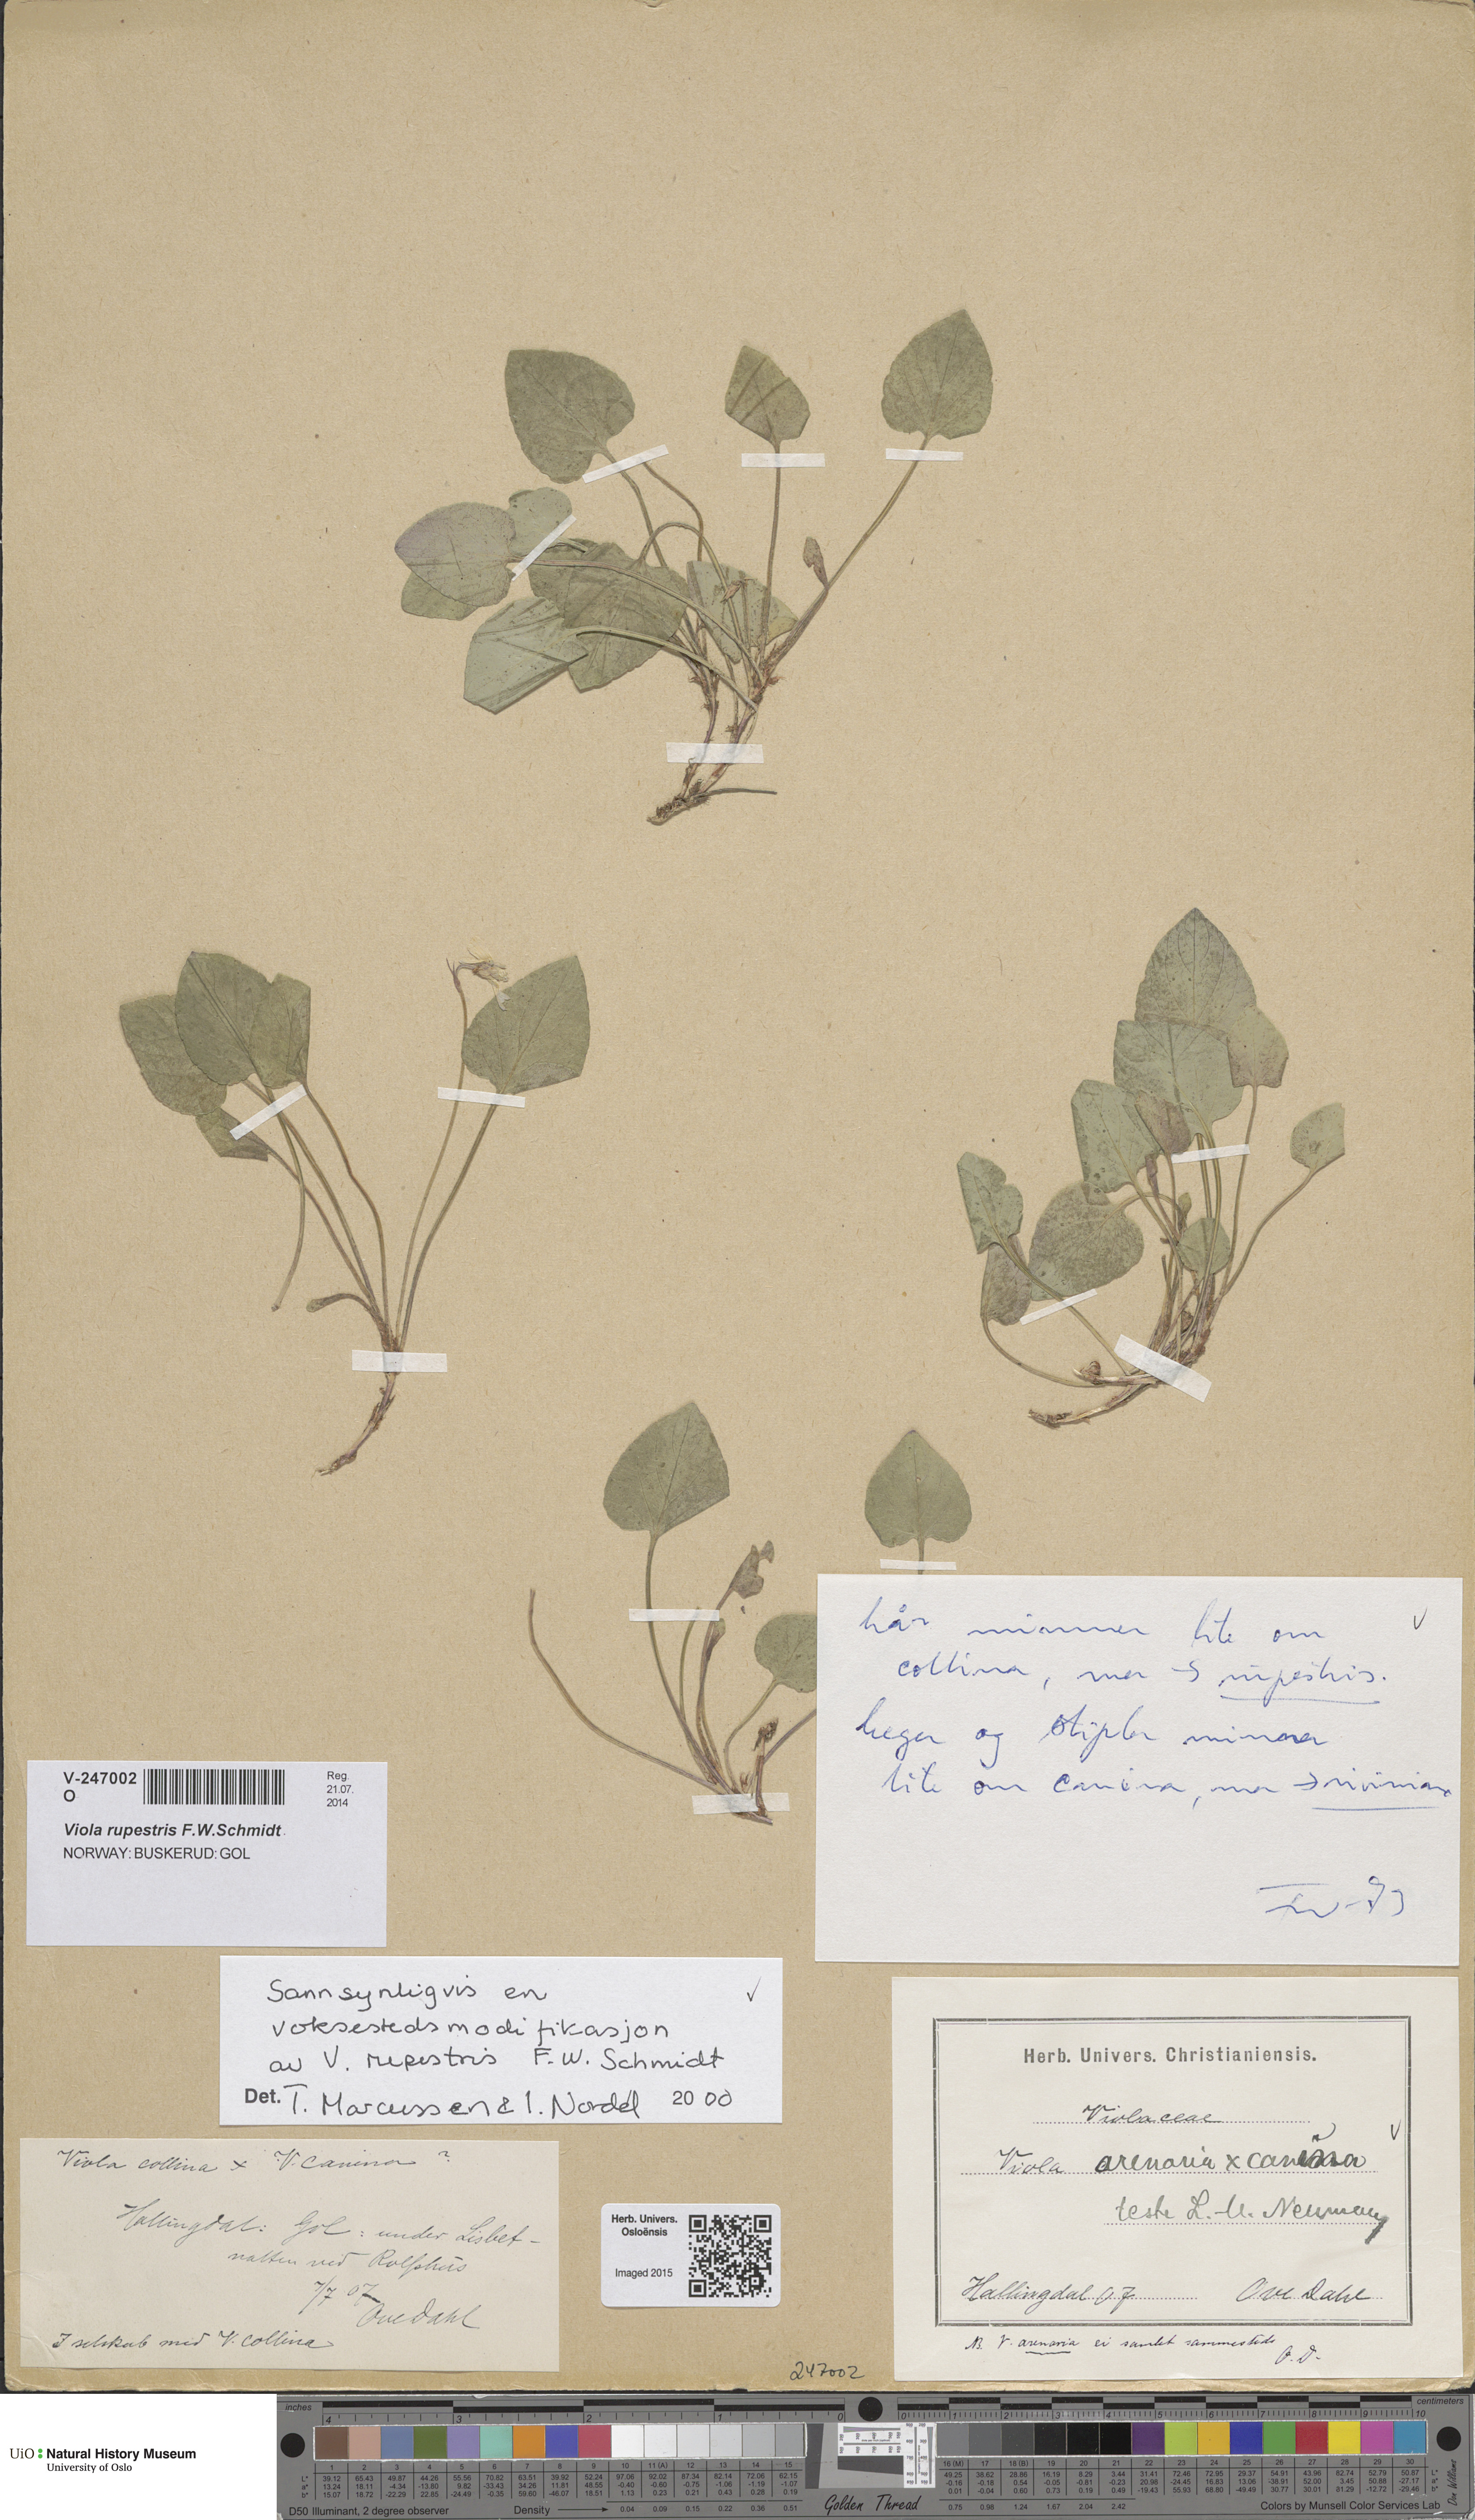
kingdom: Plantae
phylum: Tracheophyta
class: Magnoliopsida
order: Malpighiales
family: Violaceae
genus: Viola
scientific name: Viola rupestris
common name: Teesdale violet
